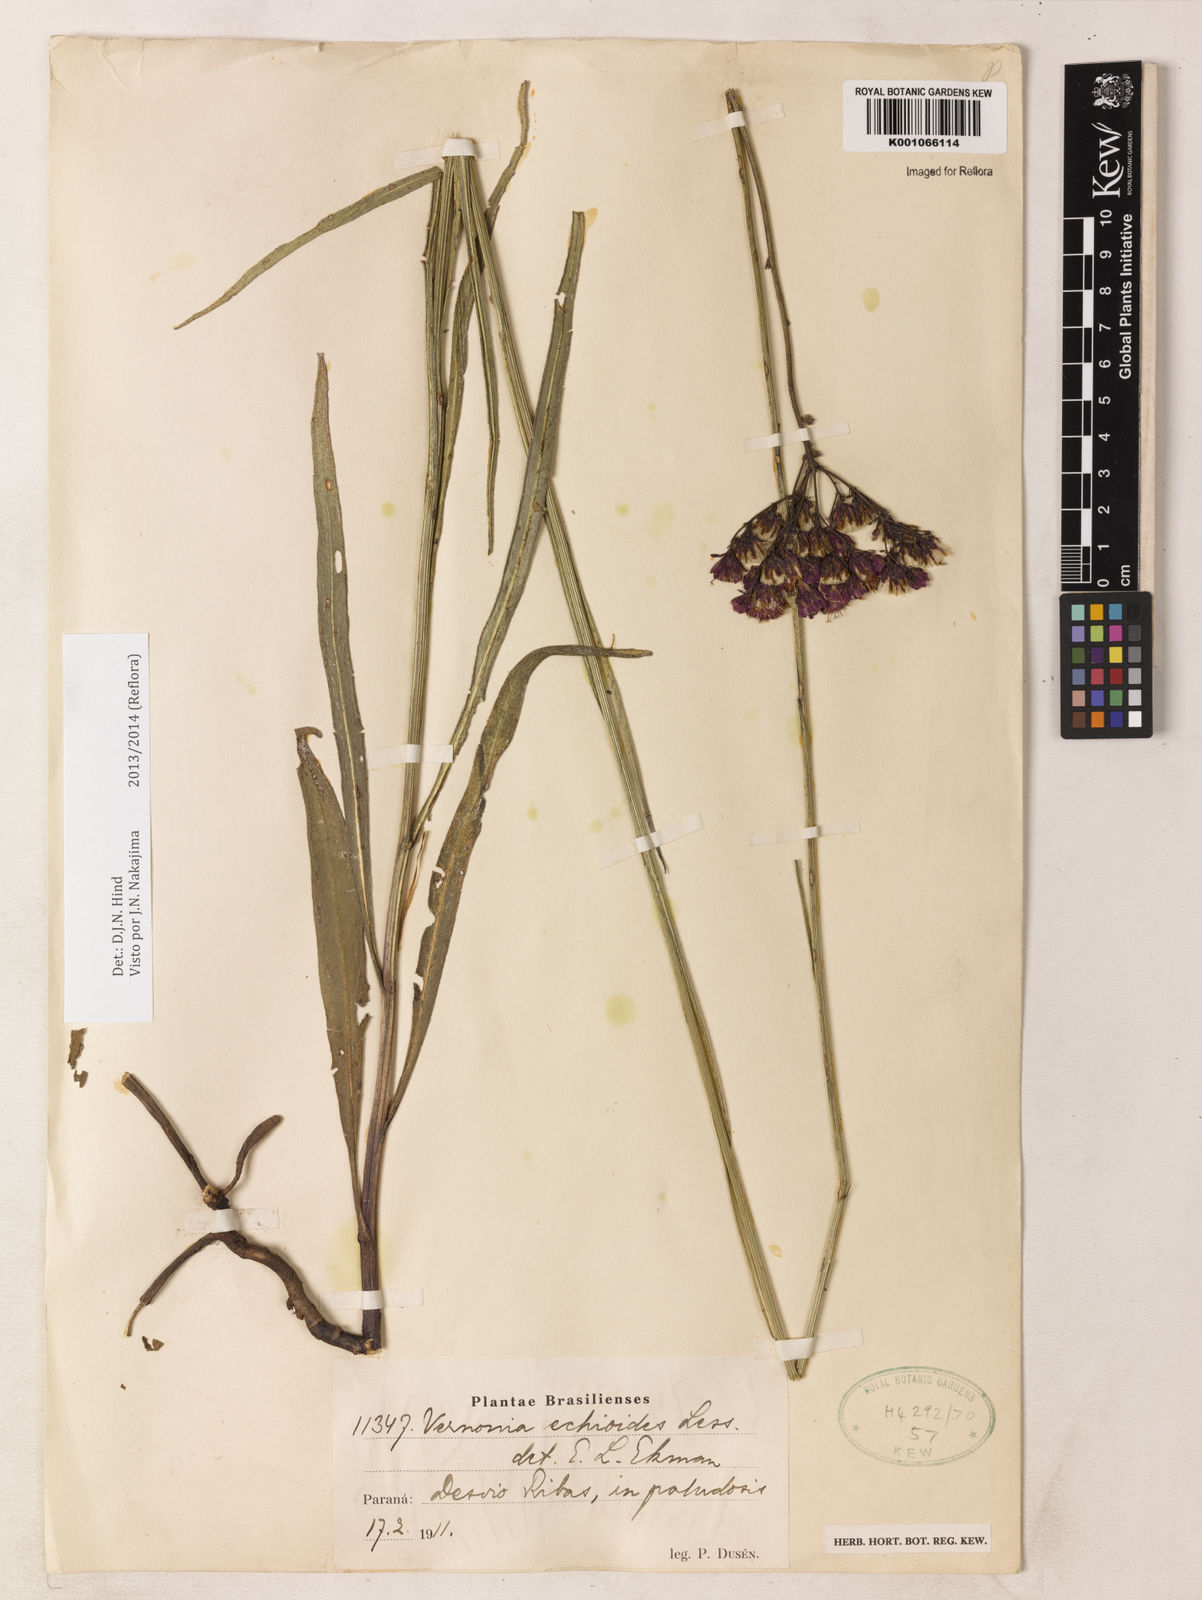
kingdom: Plantae
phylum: Tracheophyta
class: Magnoliopsida
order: Asterales
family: Asteraceae
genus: Vernonia
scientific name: Vernonia echioides
